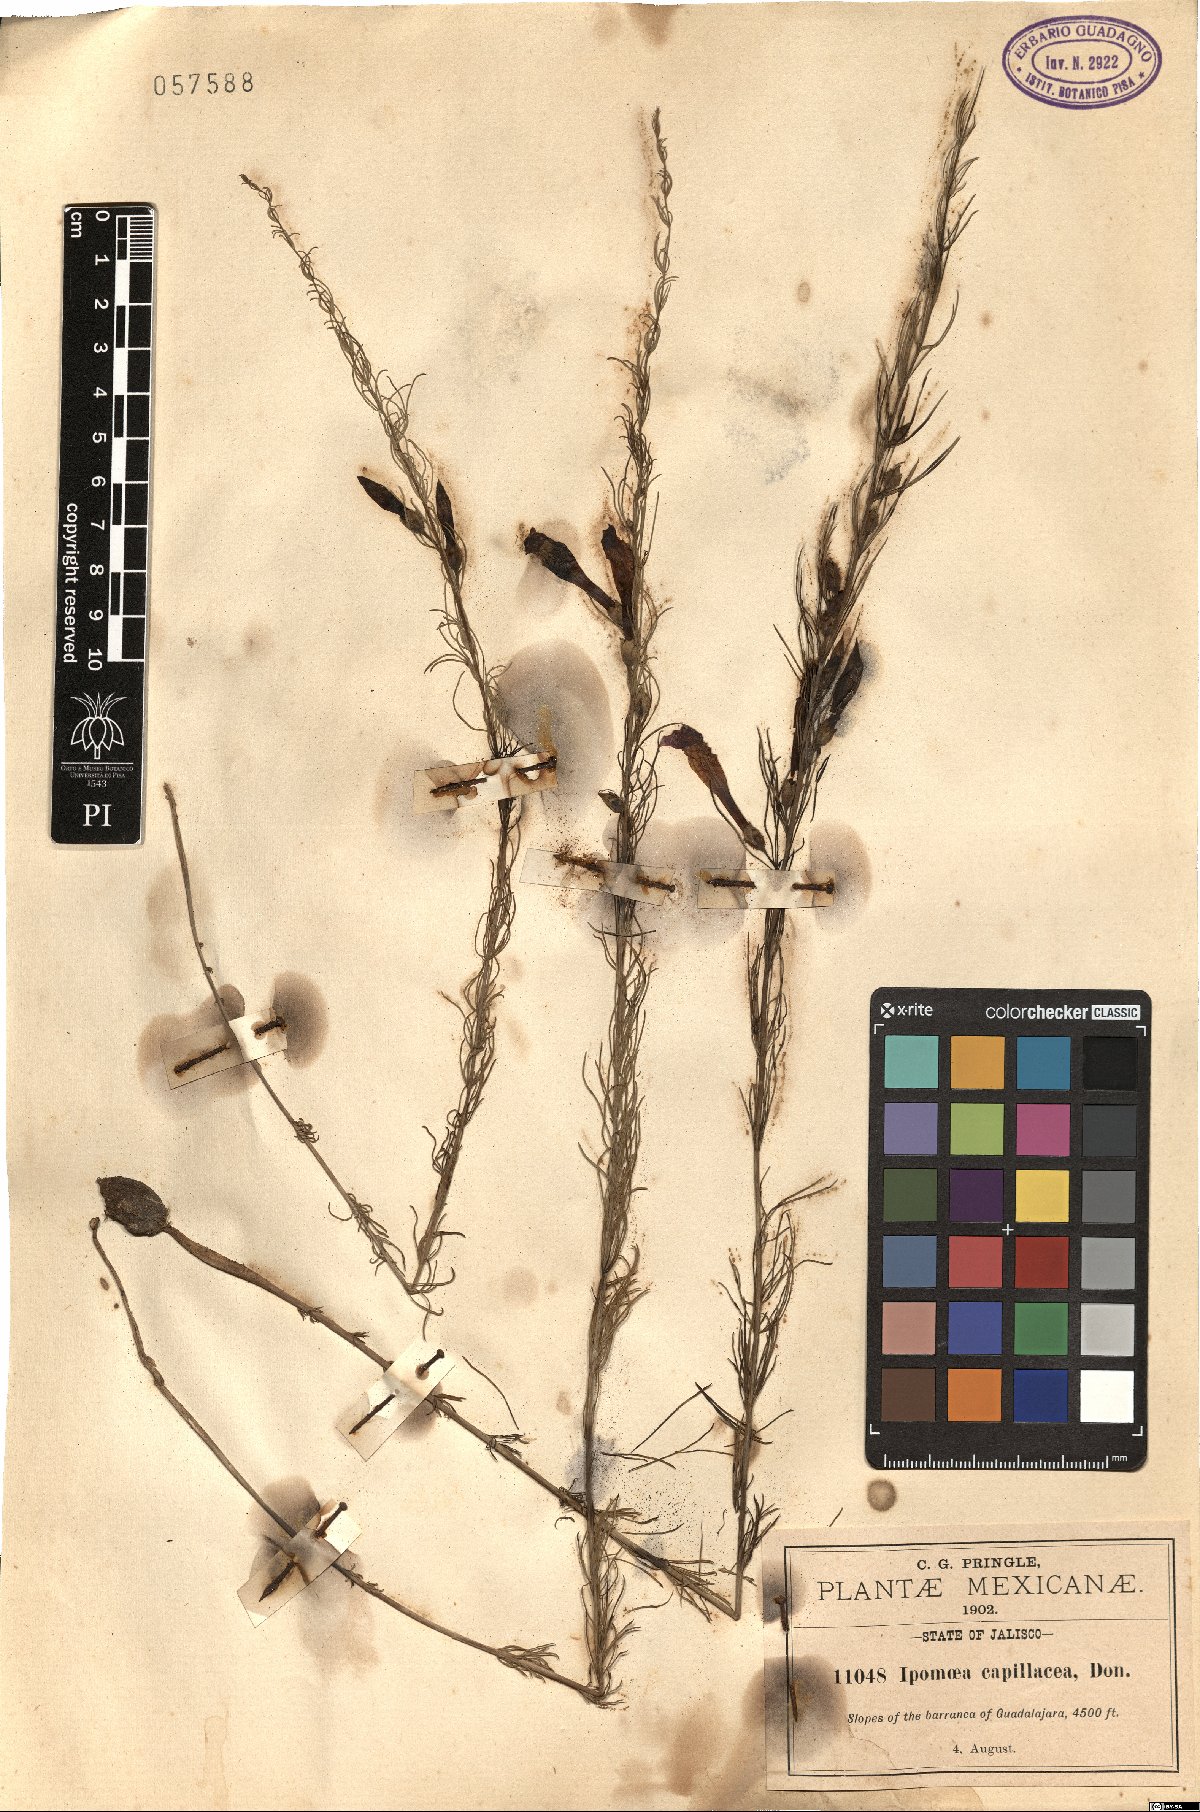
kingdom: Plantae
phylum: Tracheophyta
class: Magnoliopsida
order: Solanales
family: Convolvulaceae
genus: Ipomoea
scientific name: Ipomoea capillacea
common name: Purple morning-glory
